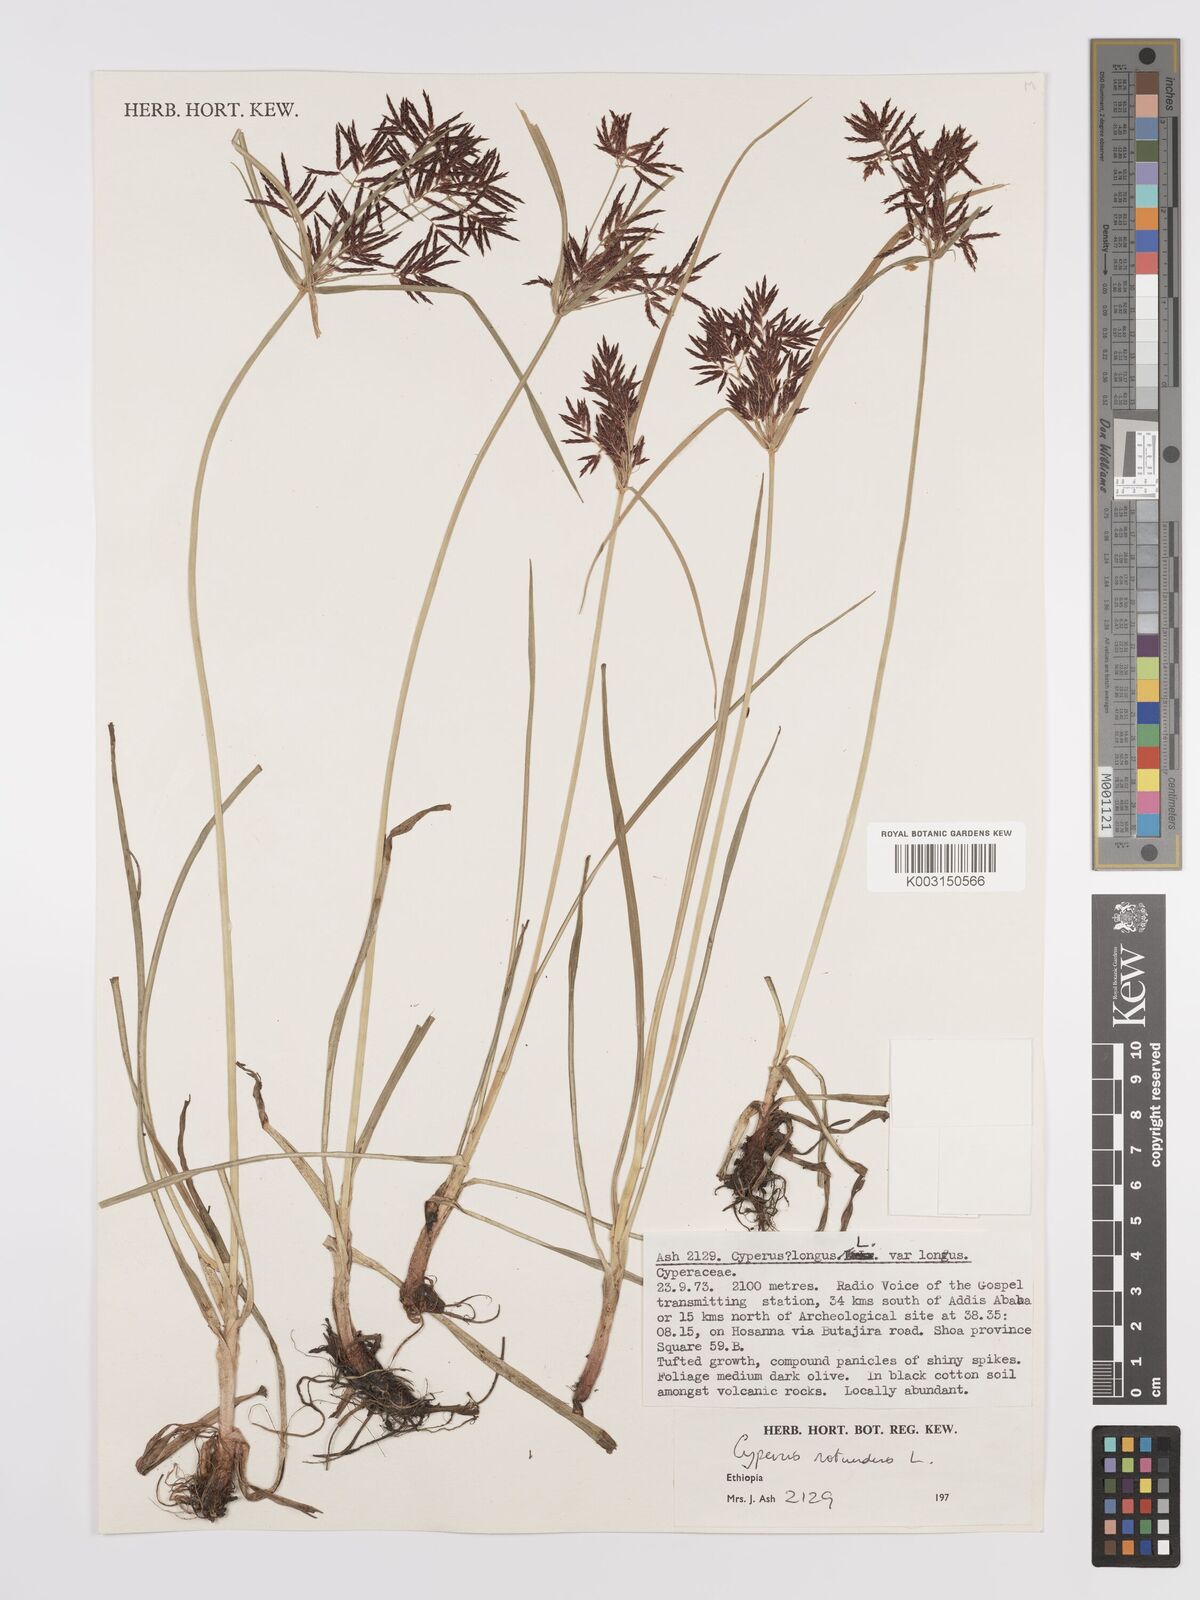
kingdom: Plantae
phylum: Tracheophyta
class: Liliopsida
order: Poales
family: Cyperaceae
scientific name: Cyperaceae
